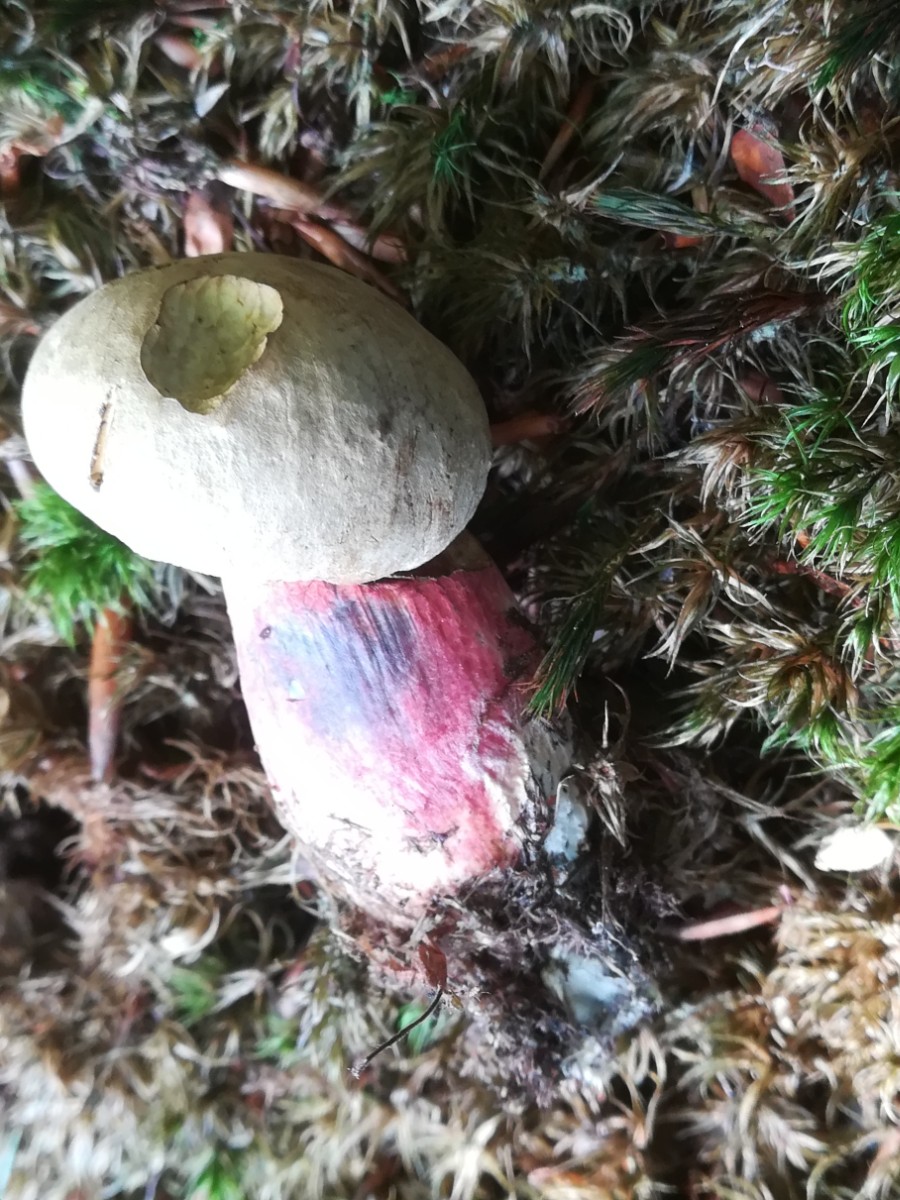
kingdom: Fungi
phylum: Basidiomycota
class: Agaricomycetes
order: Boletales
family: Boletaceae
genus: Caloboletus
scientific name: Caloboletus calopus
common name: skønfodet rørhat
